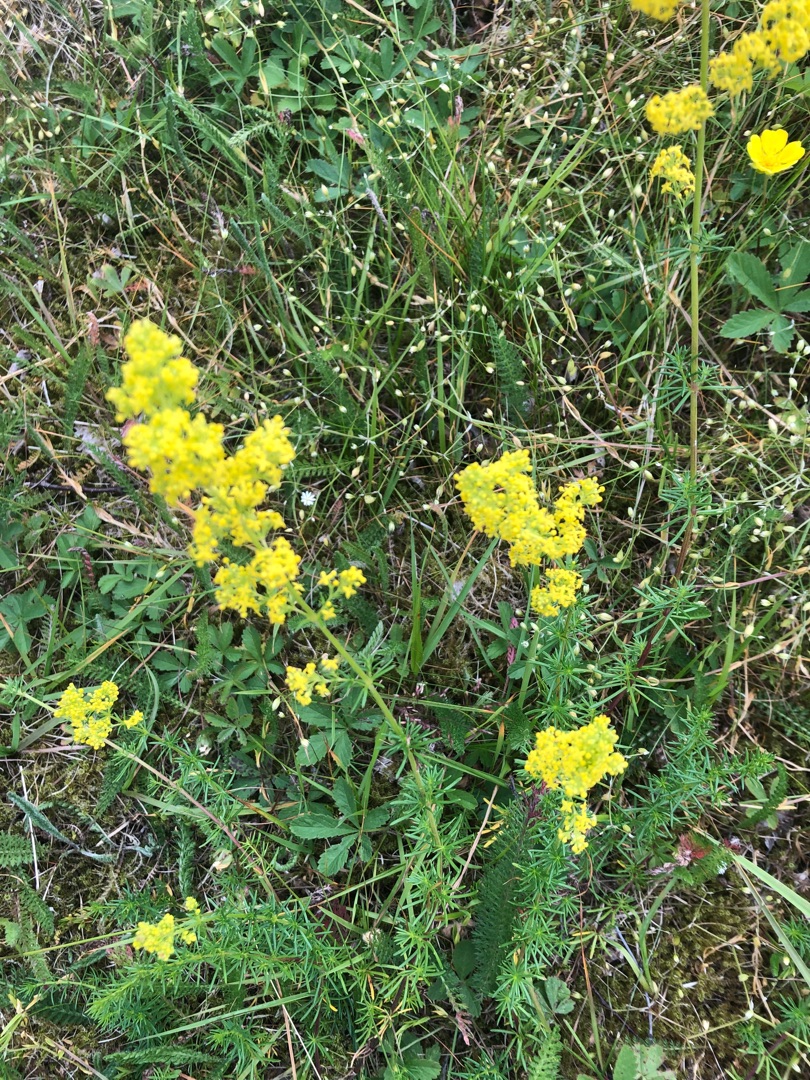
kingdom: Plantae
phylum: Tracheophyta
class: Magnoliopsida
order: Gentianales
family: Rubiaceae
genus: Galium
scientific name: Galium verum
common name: Gul snerre
